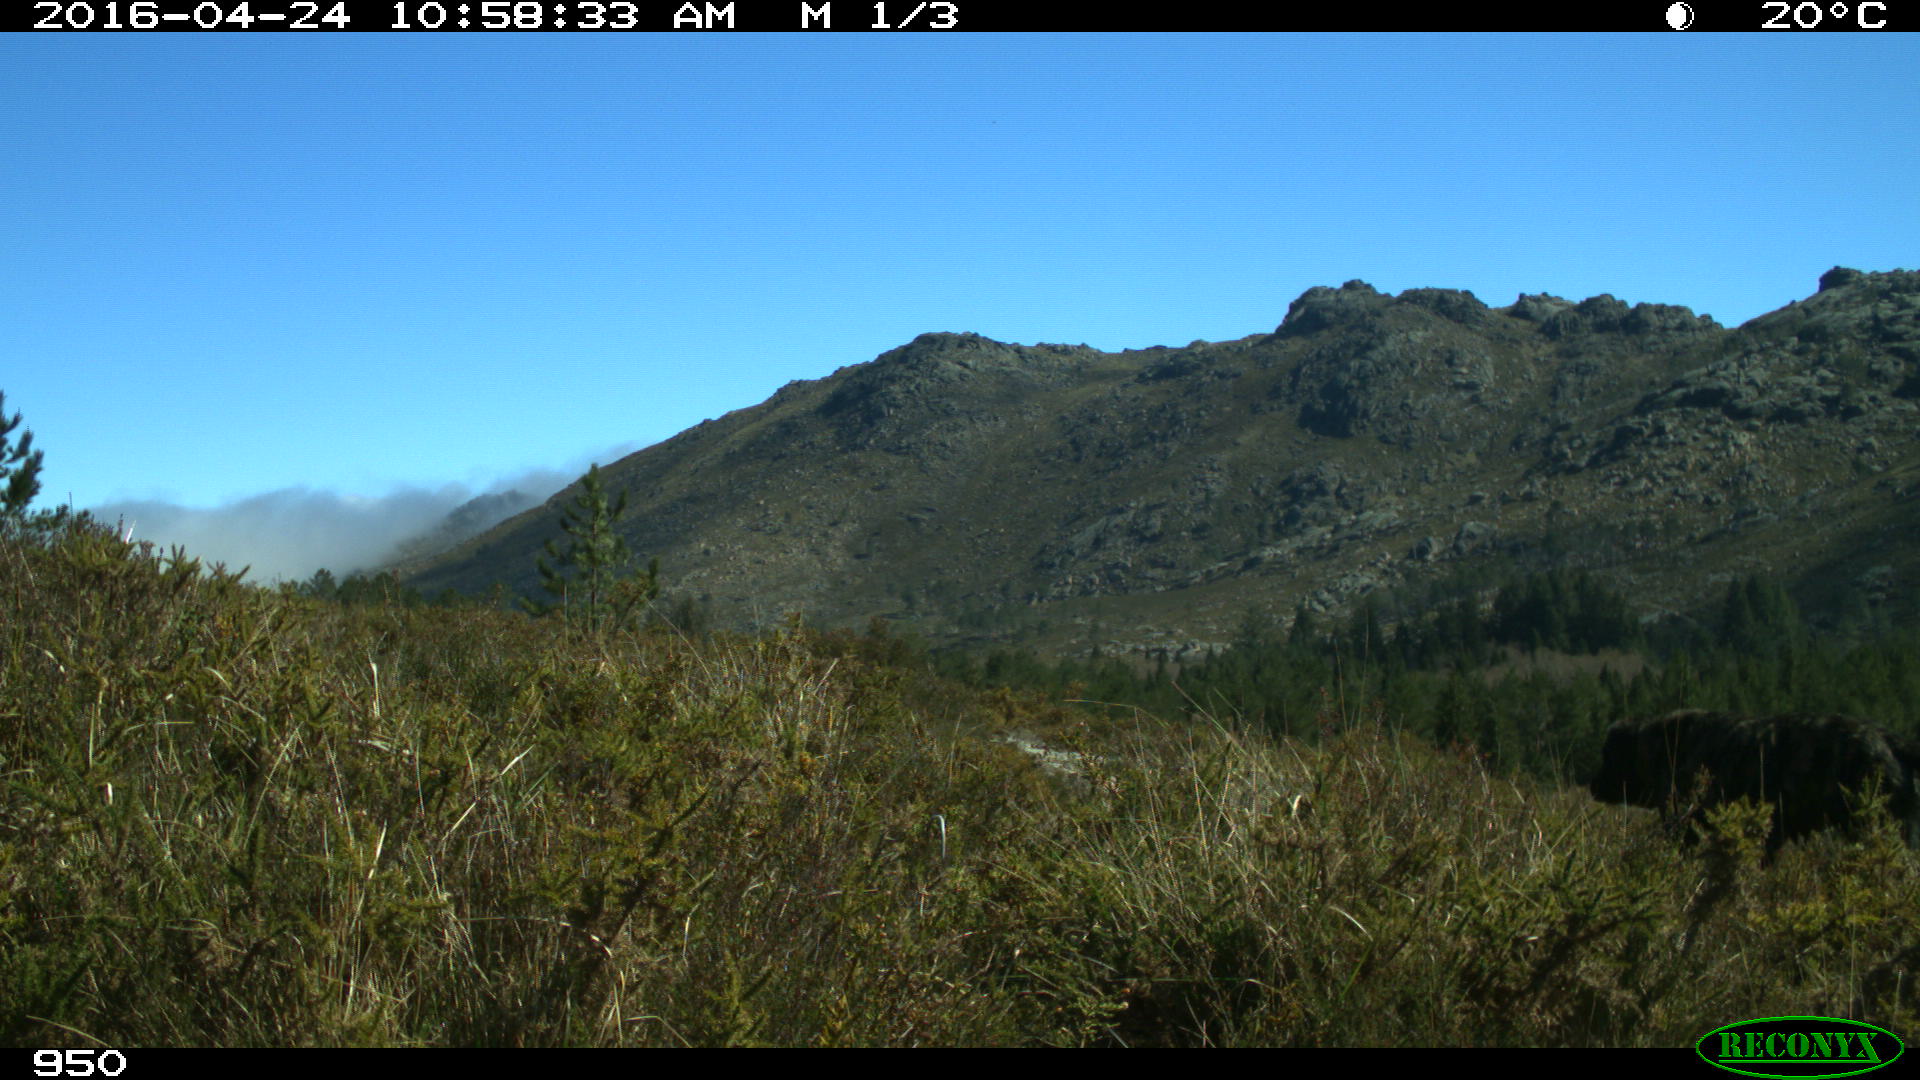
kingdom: Animalia
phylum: Chordata
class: Mammalia
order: Carnivora
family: Canidae
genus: Canis
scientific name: Canis lupus
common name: Gray wolf
